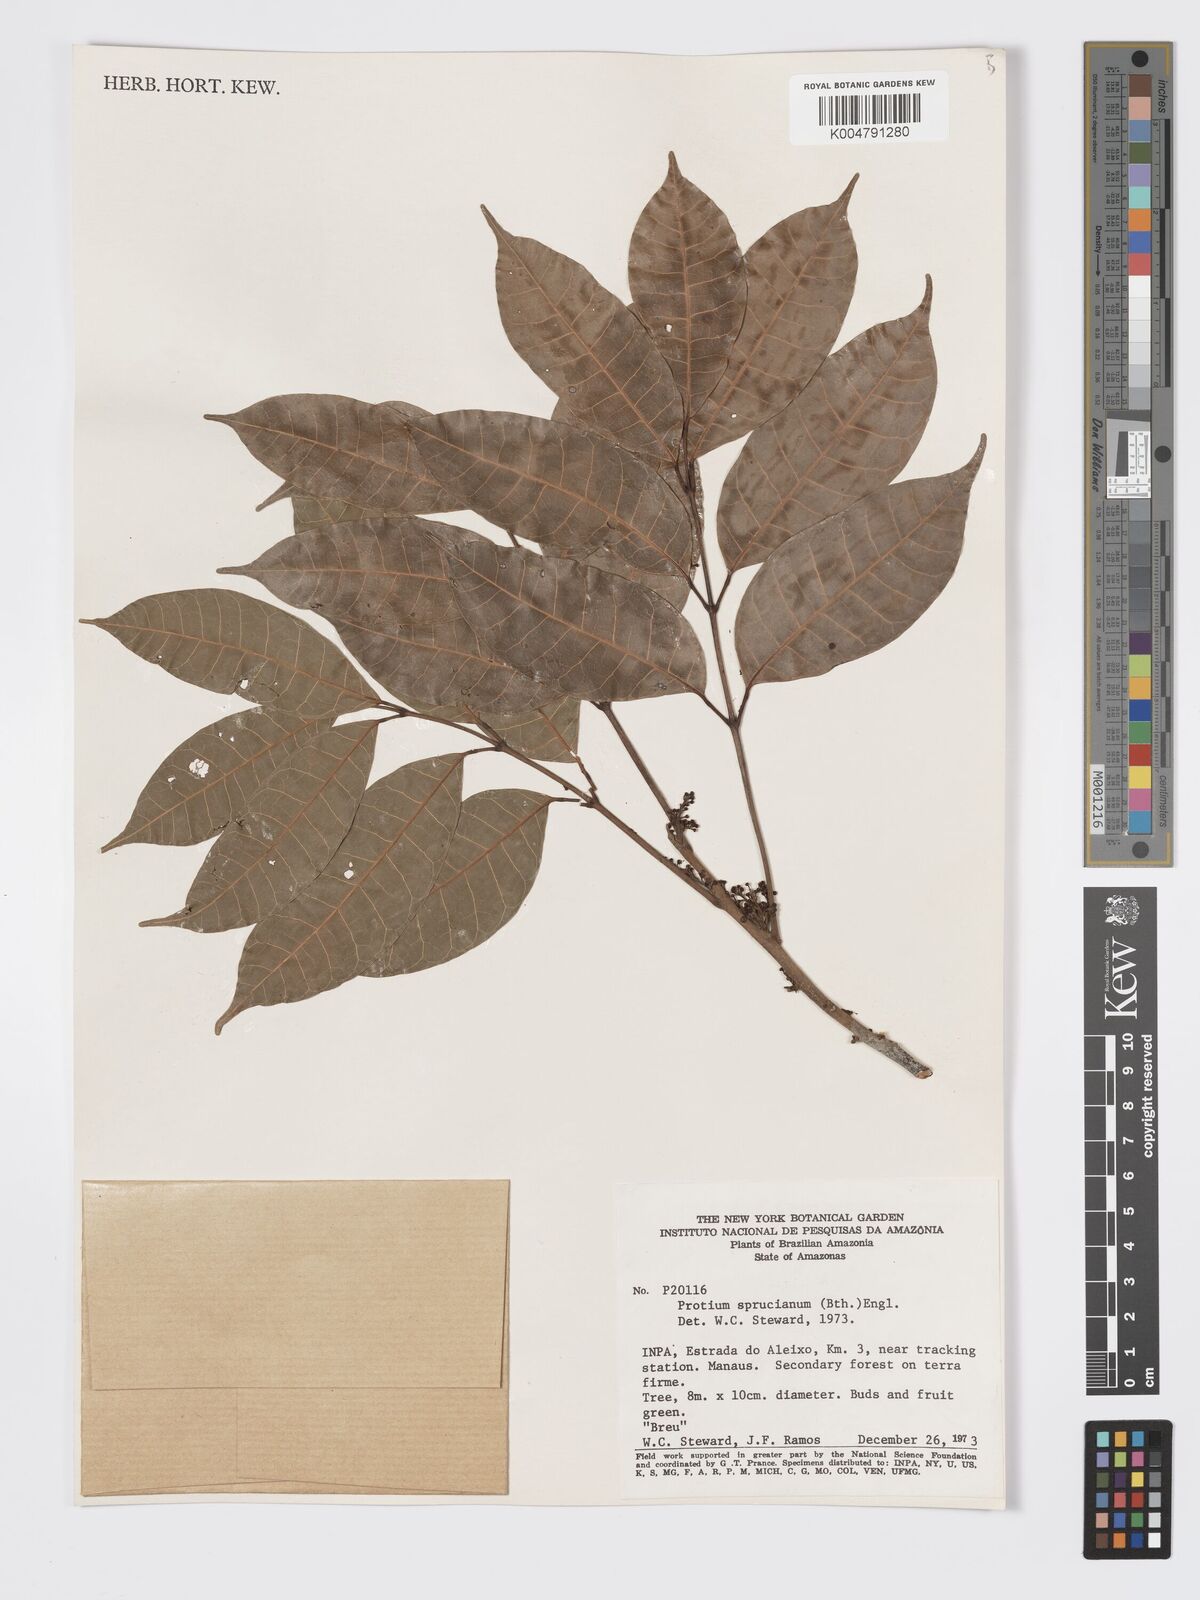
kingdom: Plantae
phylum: Tracheophyta
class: Magnoliopsida
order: Sapindales
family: Burseraceae
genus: Protium
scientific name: Protium spruceanum
